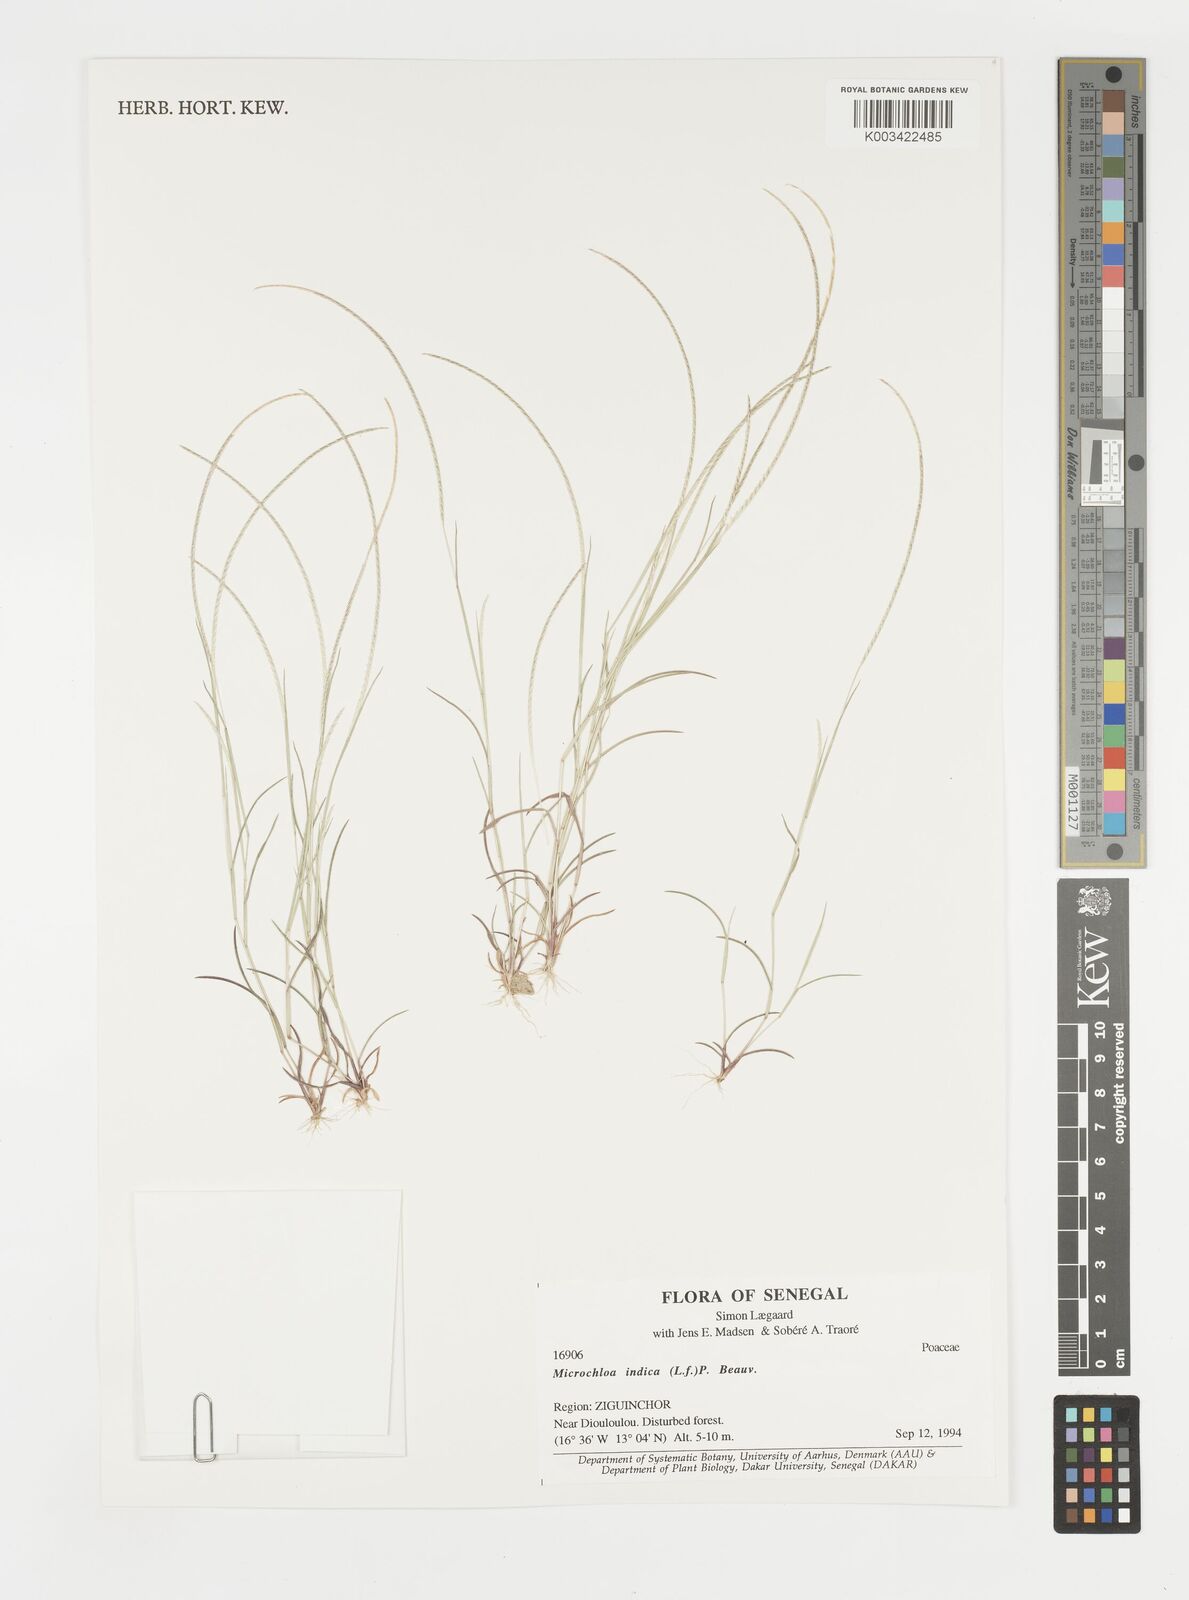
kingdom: Plantae
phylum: Tracheophyta
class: Liliopsida
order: Poales
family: Poaceae
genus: Microchloa
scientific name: Microchloa indica
